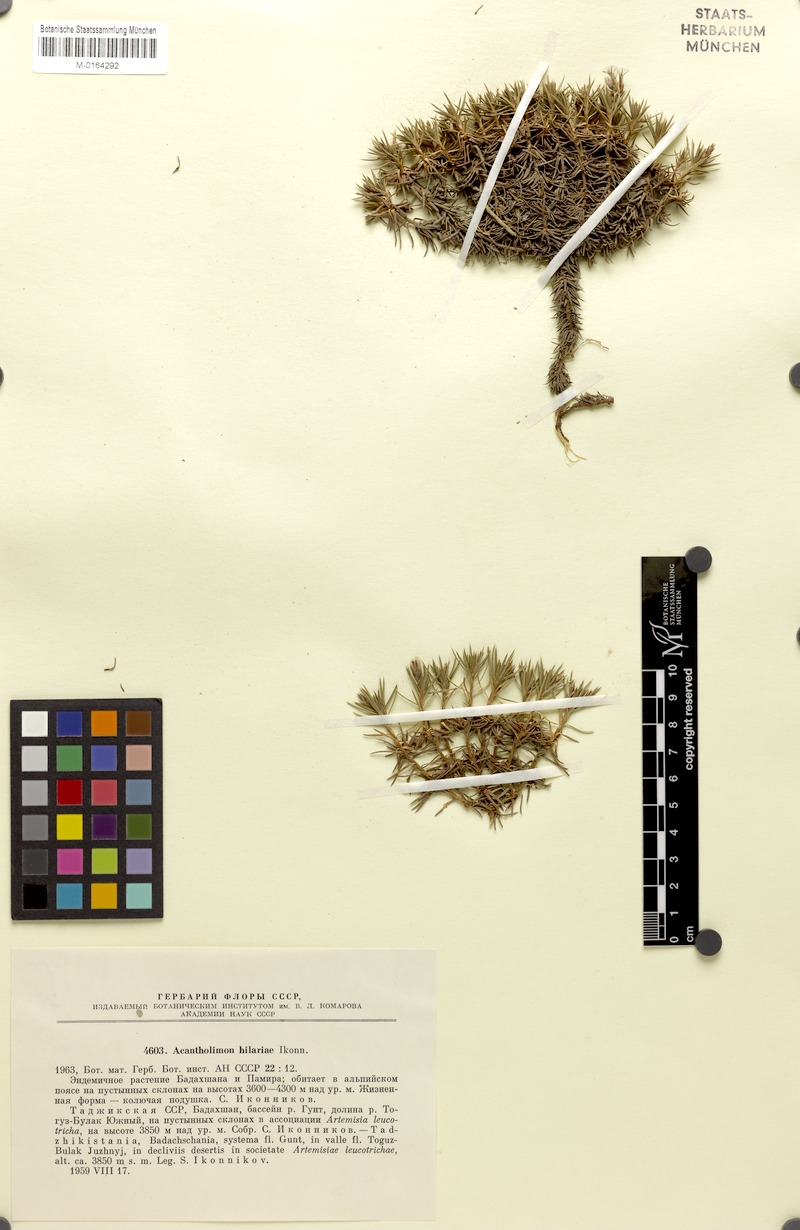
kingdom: Plantae
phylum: Tracheophyta
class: Magnoliopsida
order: Caryophyllales
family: Plumbaginaceae
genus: Acantholimon
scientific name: Acantholimon hilariae
